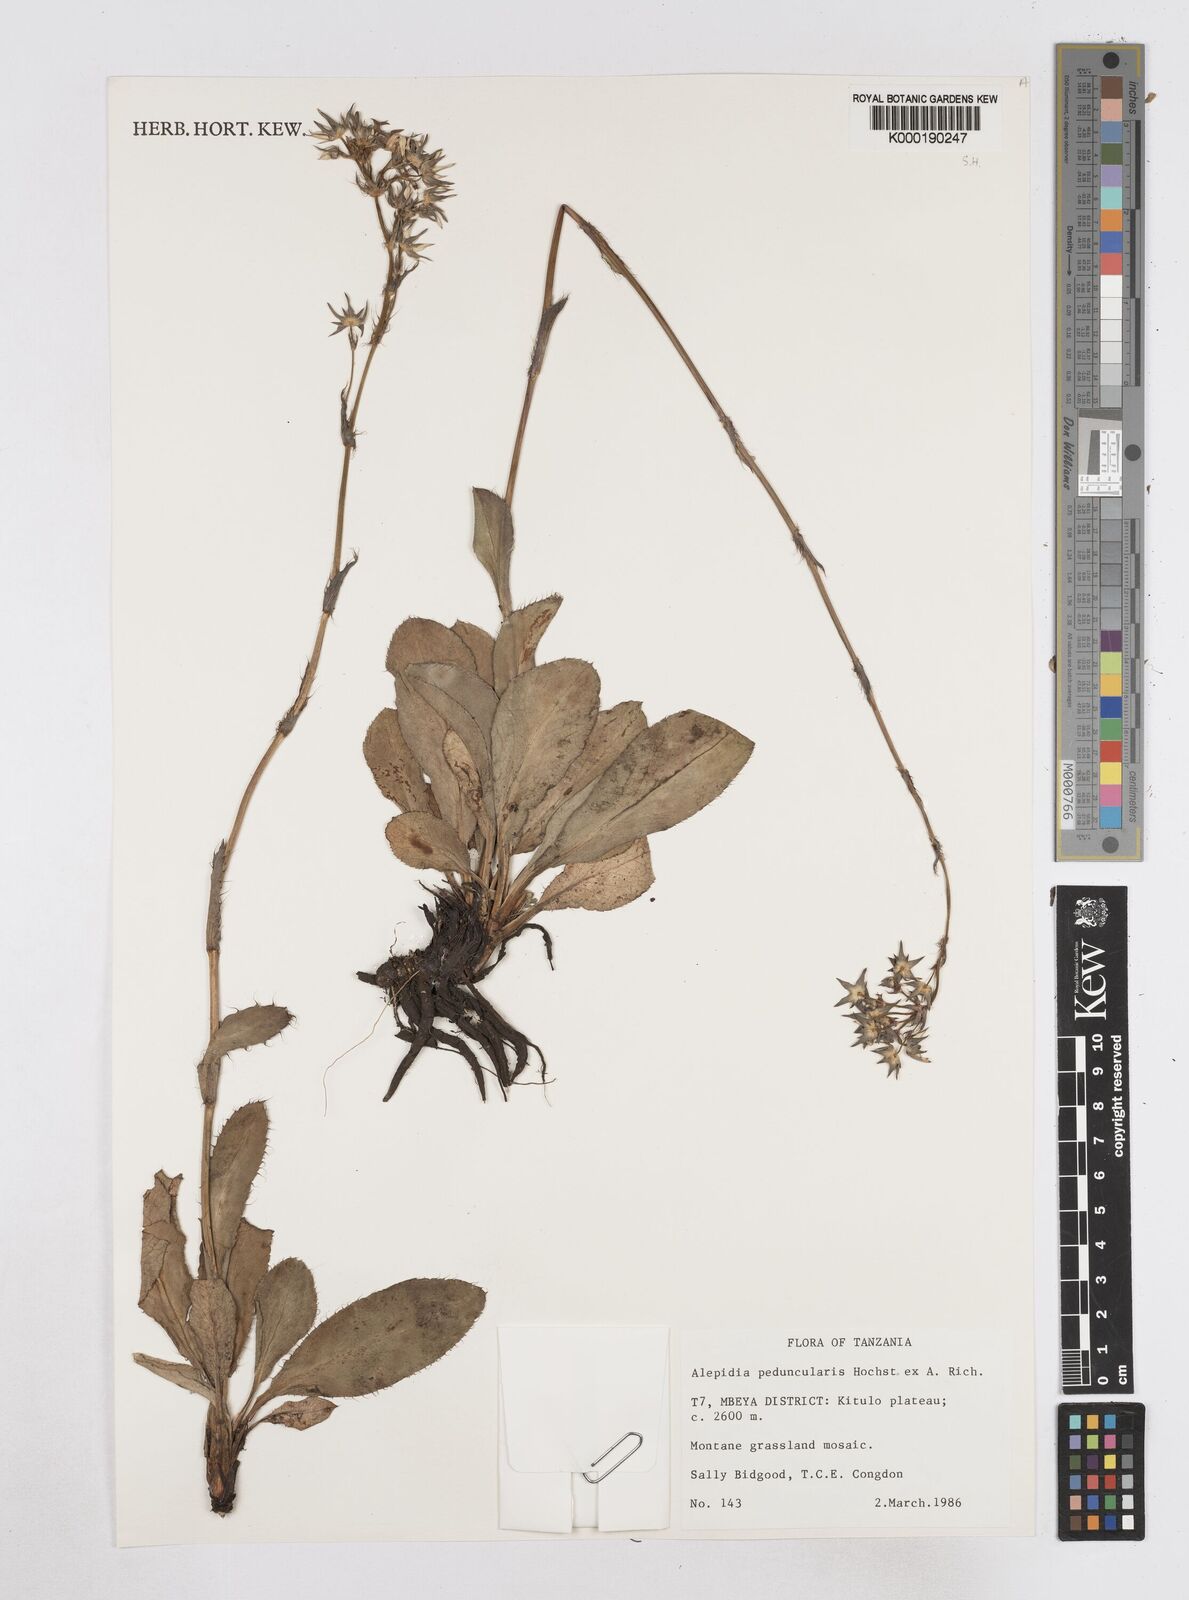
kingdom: Plantae
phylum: Tracheophyta
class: Magnoliopsida
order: Apiales
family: Apiaceae
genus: Alepidea
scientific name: Alepidea peduncularis
